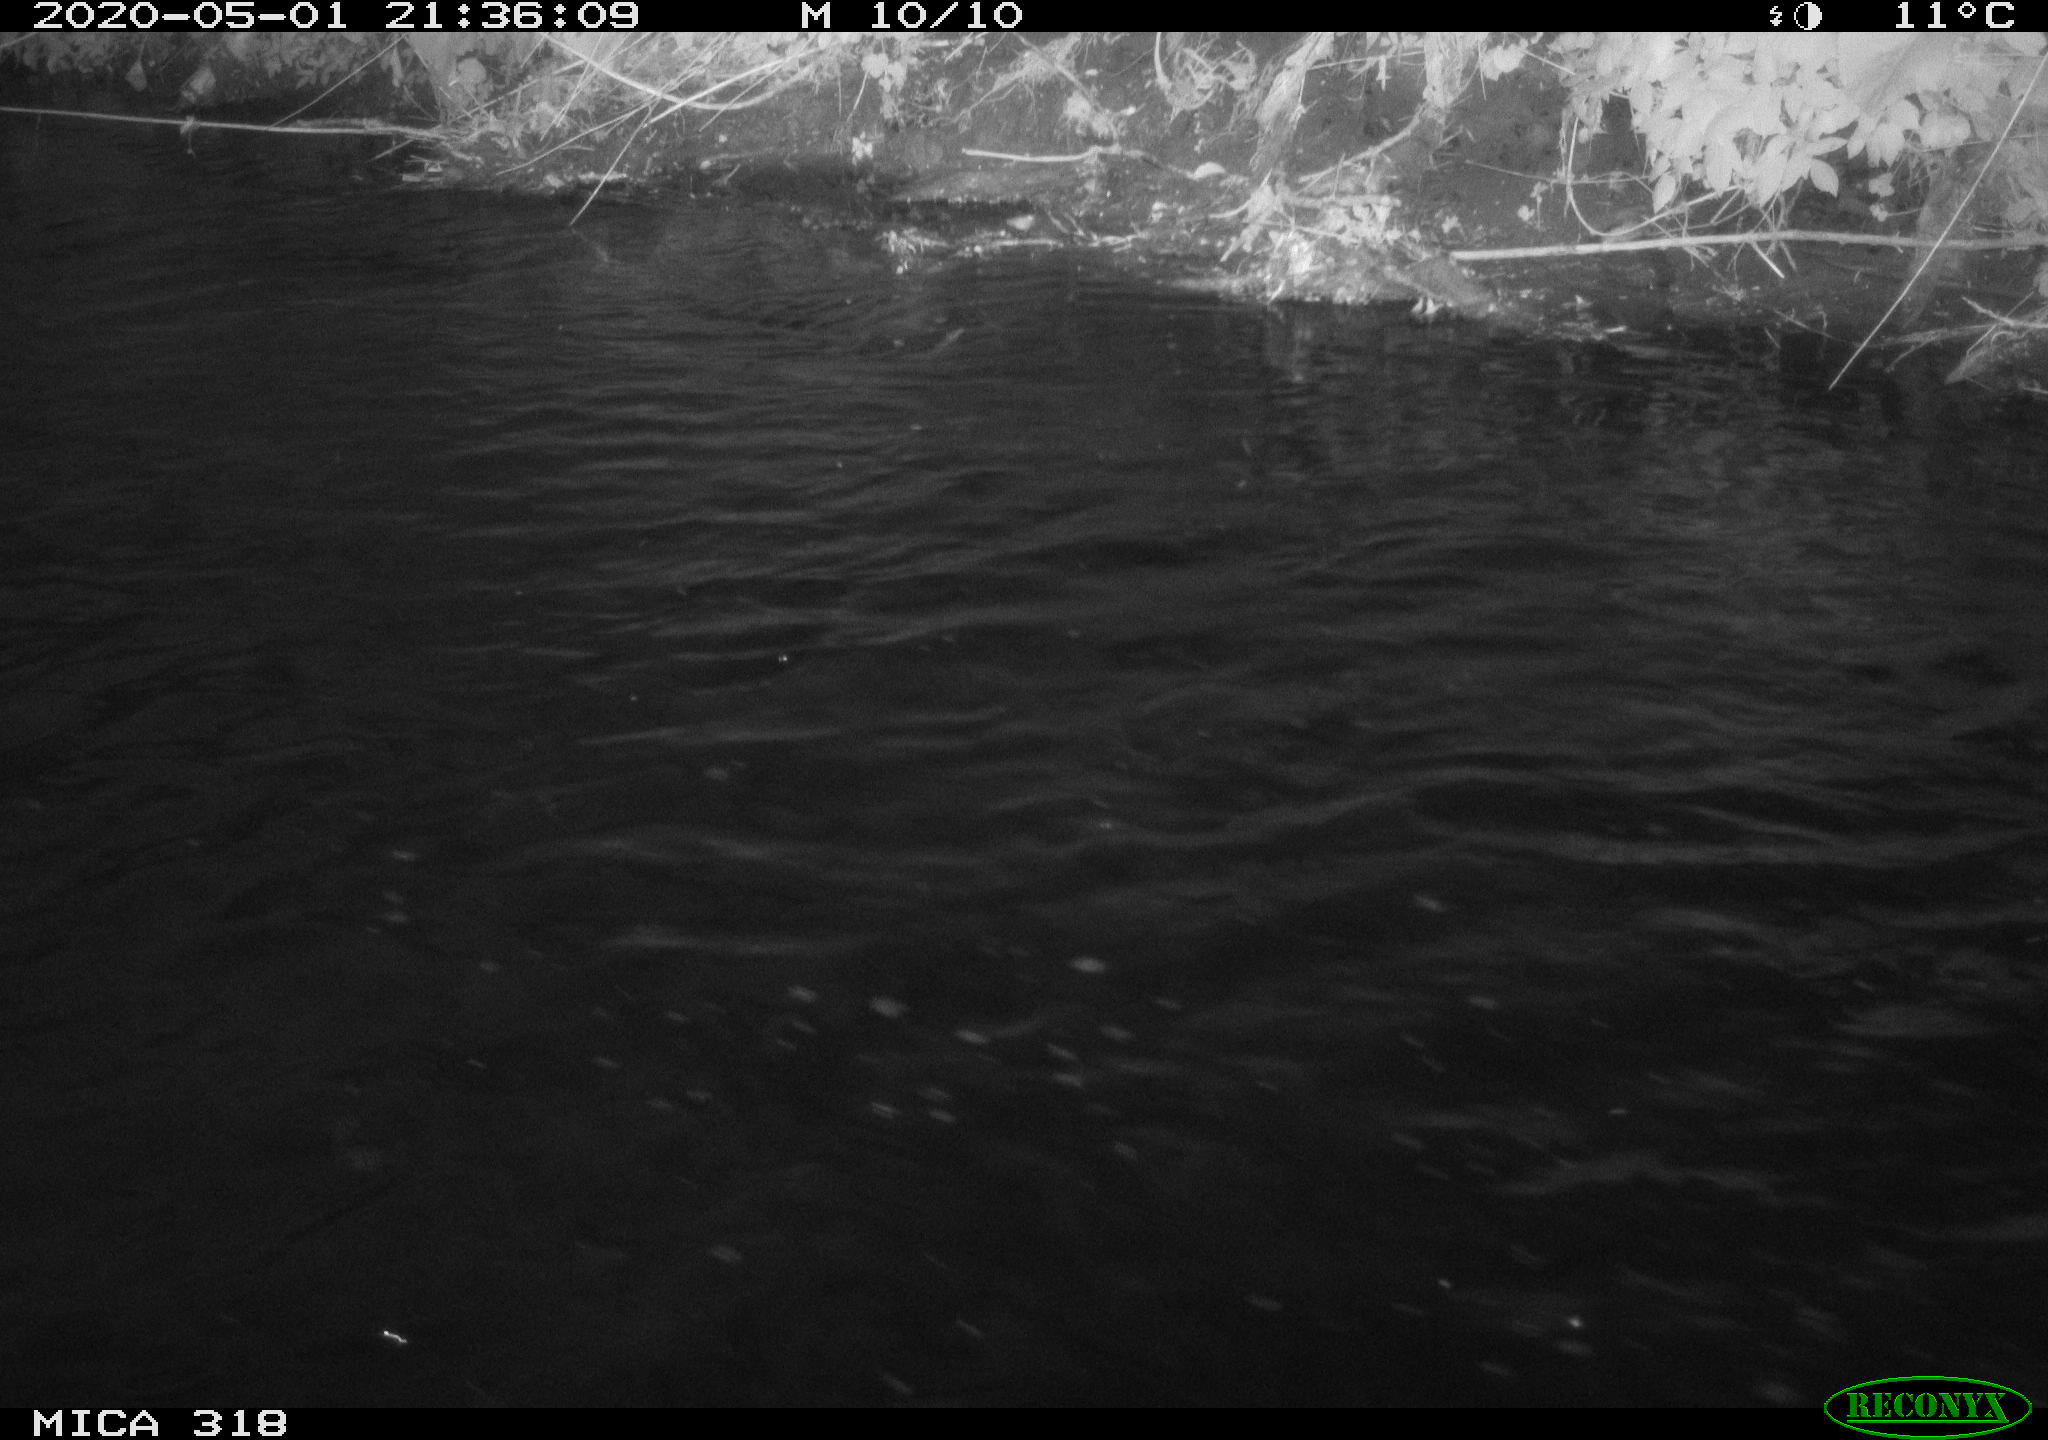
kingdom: Animalia
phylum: Chordata
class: Aves
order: Anseriformes
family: Anatidae
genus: Anas
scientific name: Anas platyrhynchos
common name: Mallard
